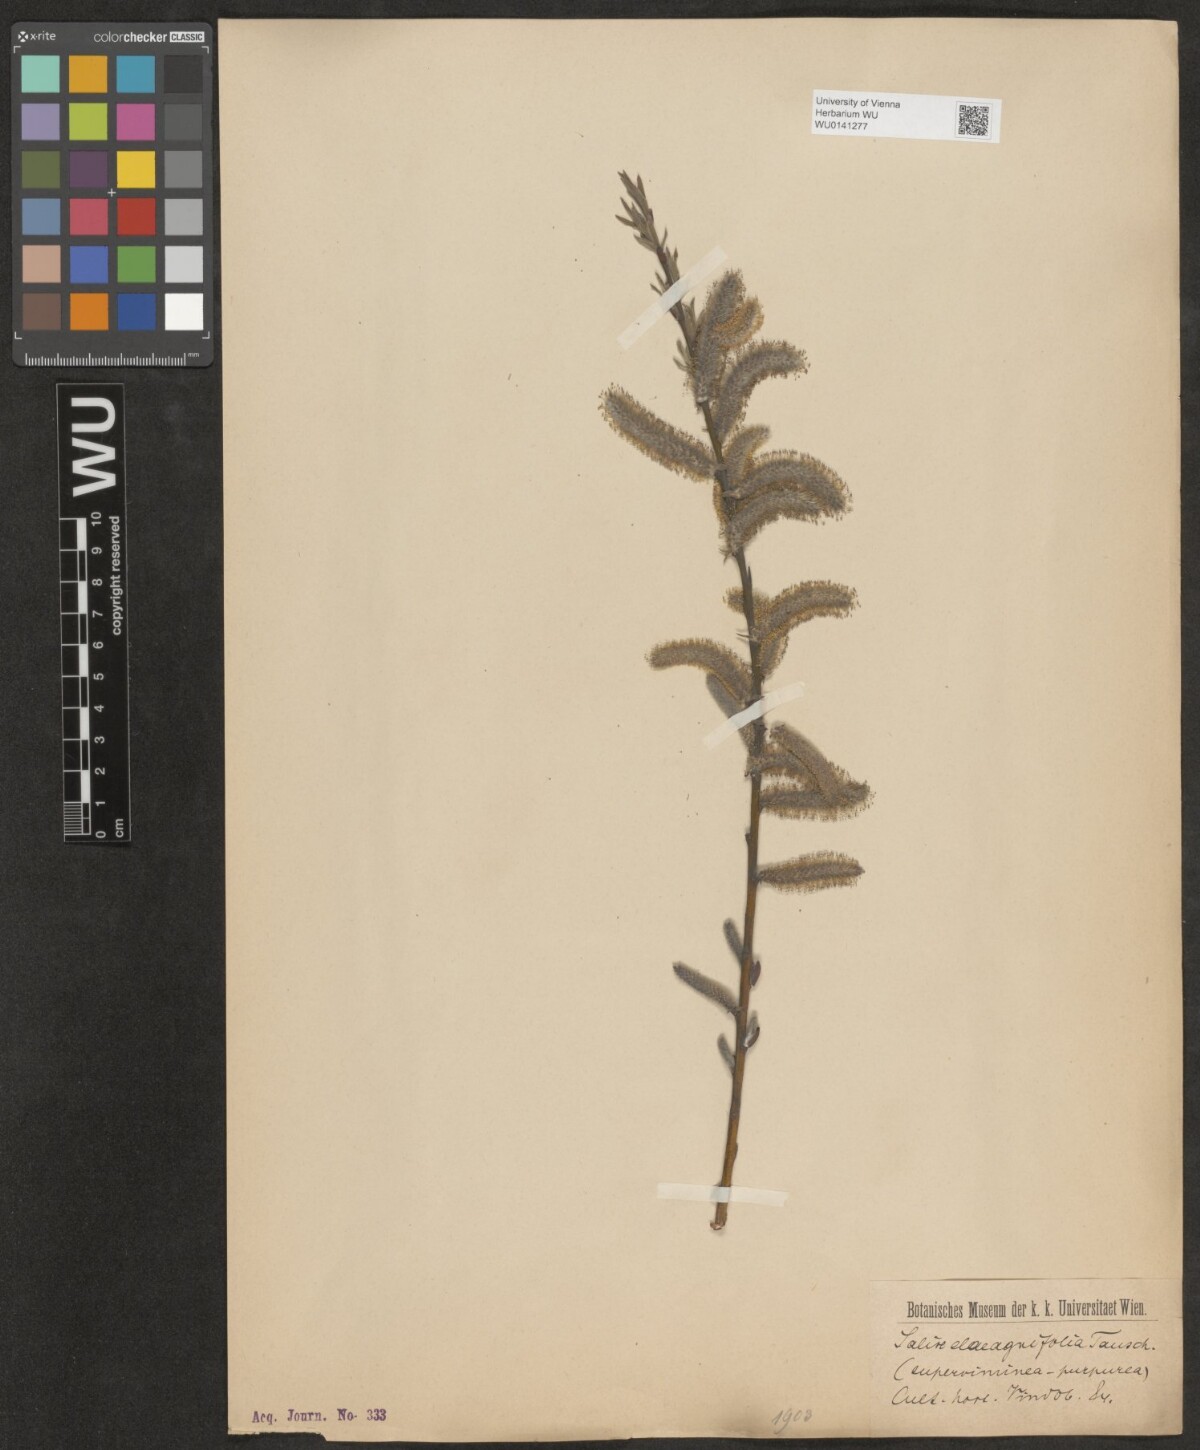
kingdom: Plantae
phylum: Tracheophyta
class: Magnoliopsida
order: Malpighiales
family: Salicaceae
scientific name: Salicaceae
